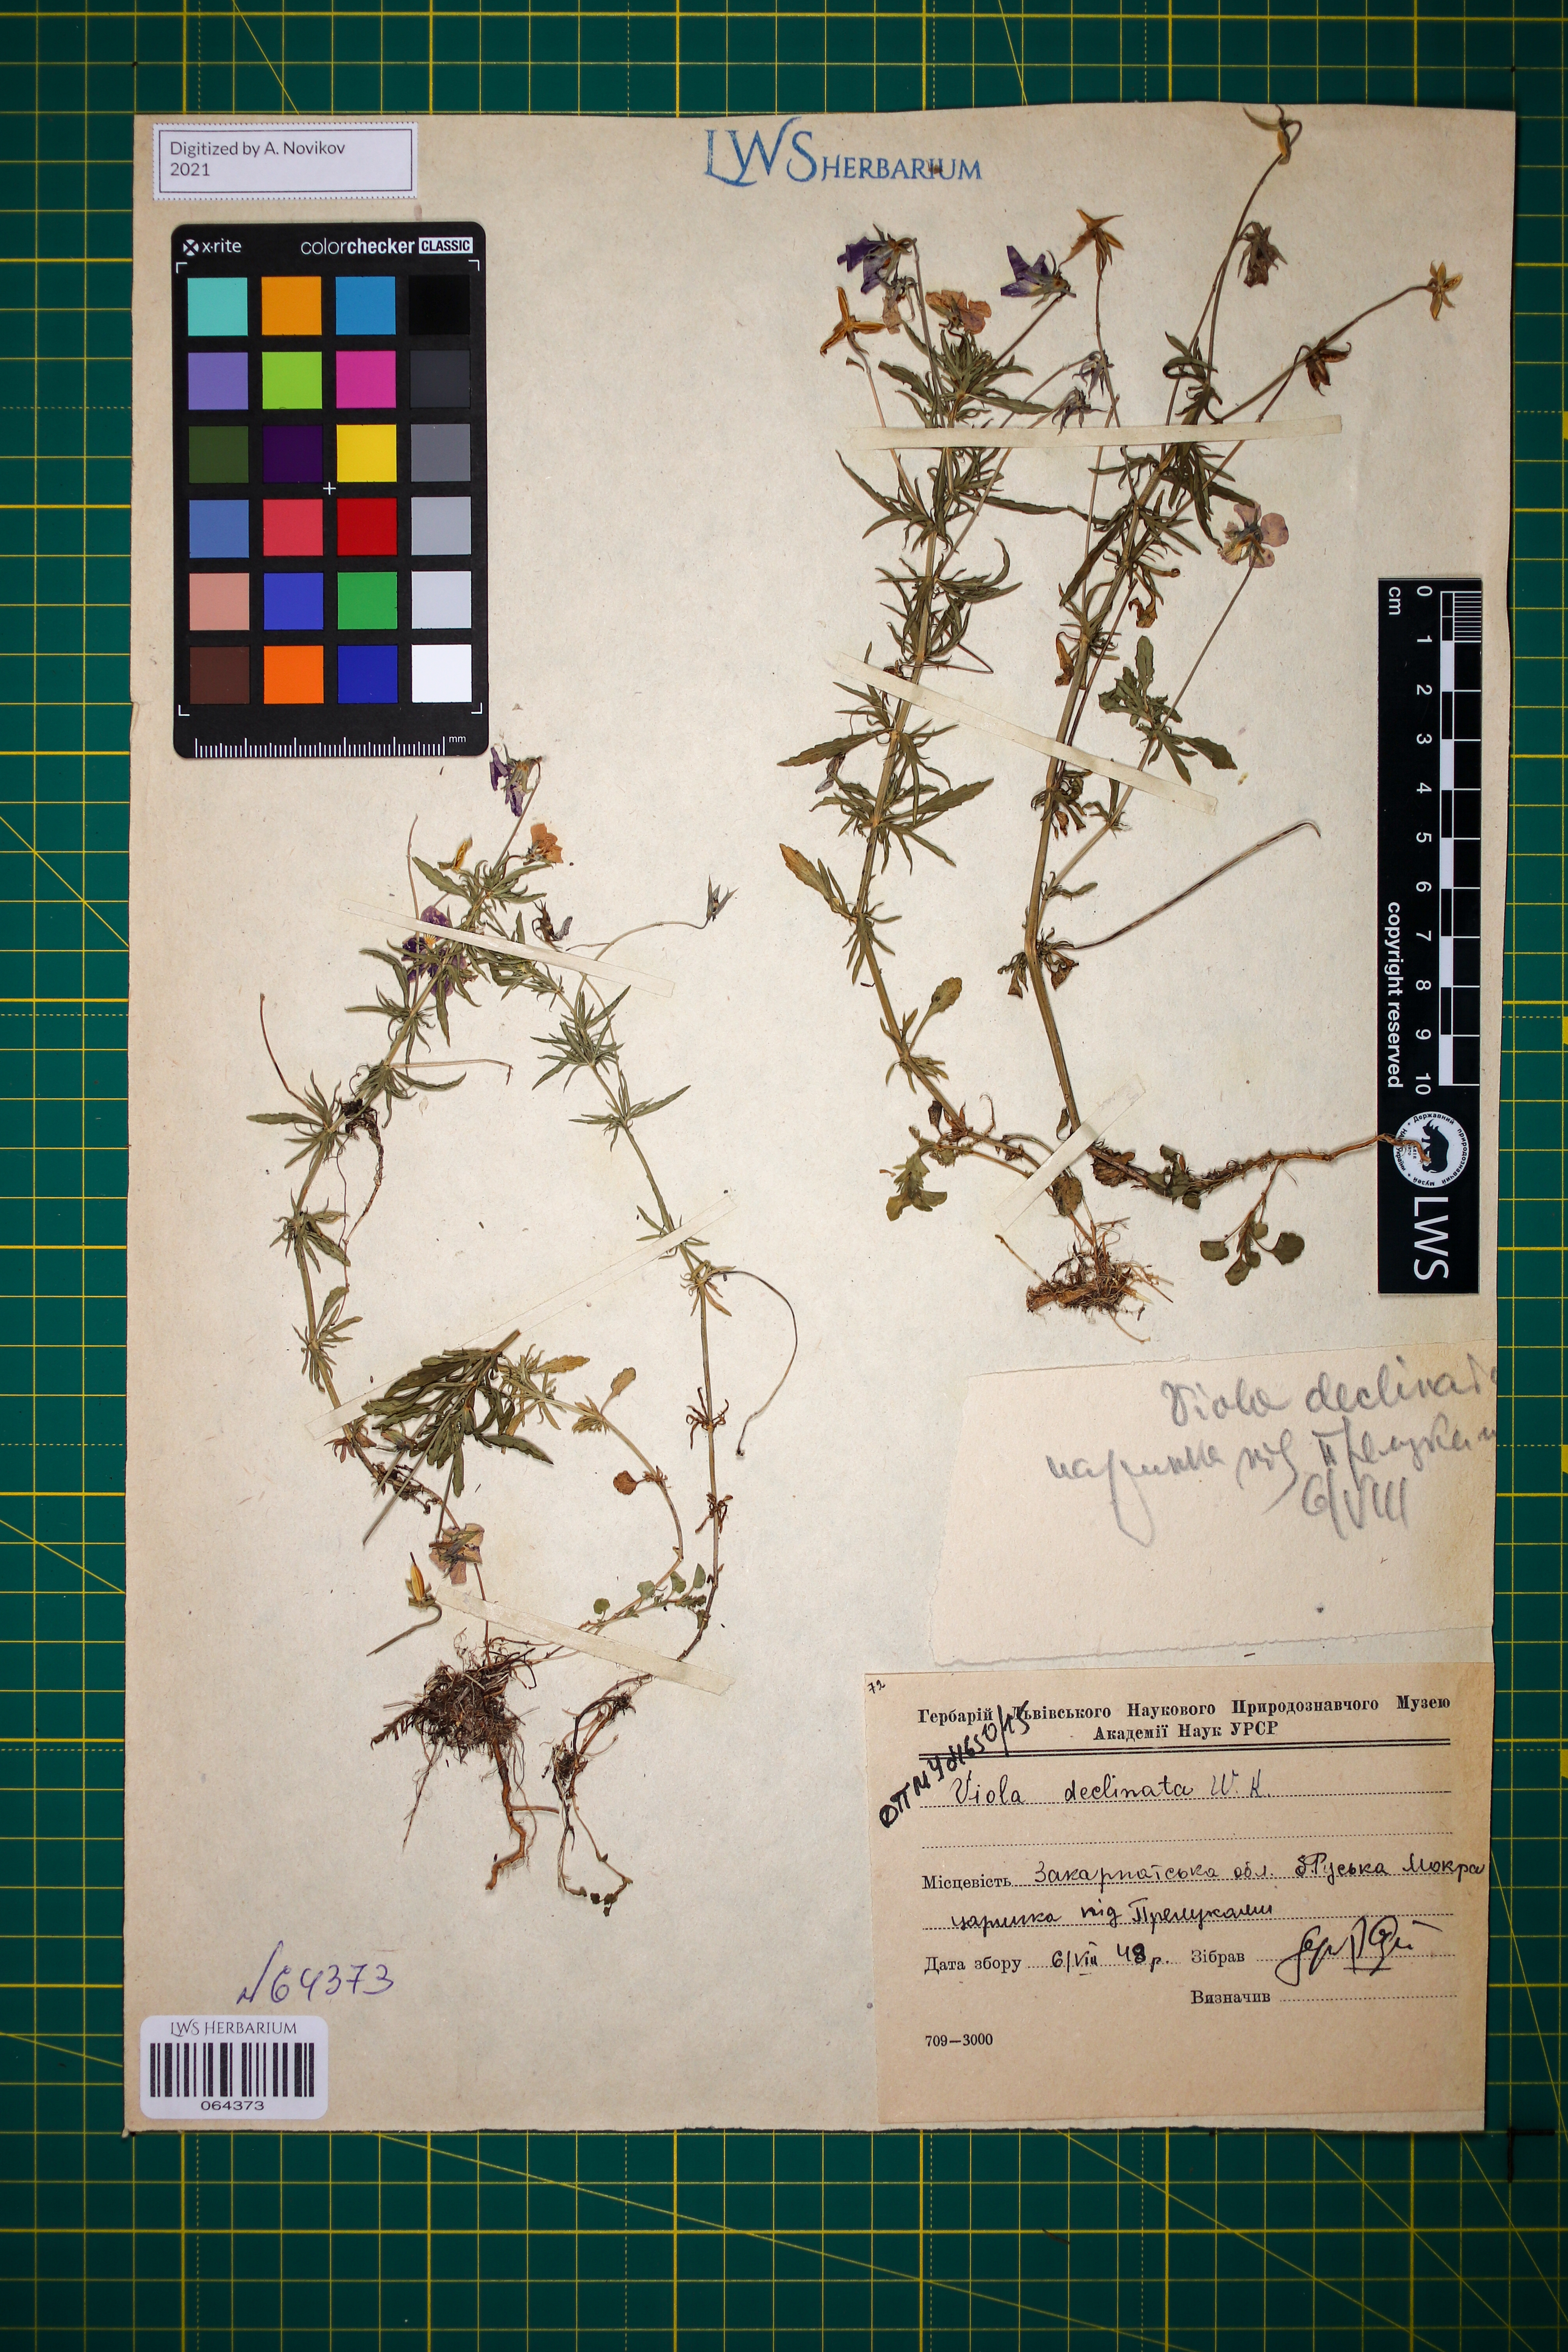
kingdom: Plantae
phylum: Tracheophyta
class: Magnoliopsida
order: Malpighiales
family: Violaceae
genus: Viola
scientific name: Viola declinata
